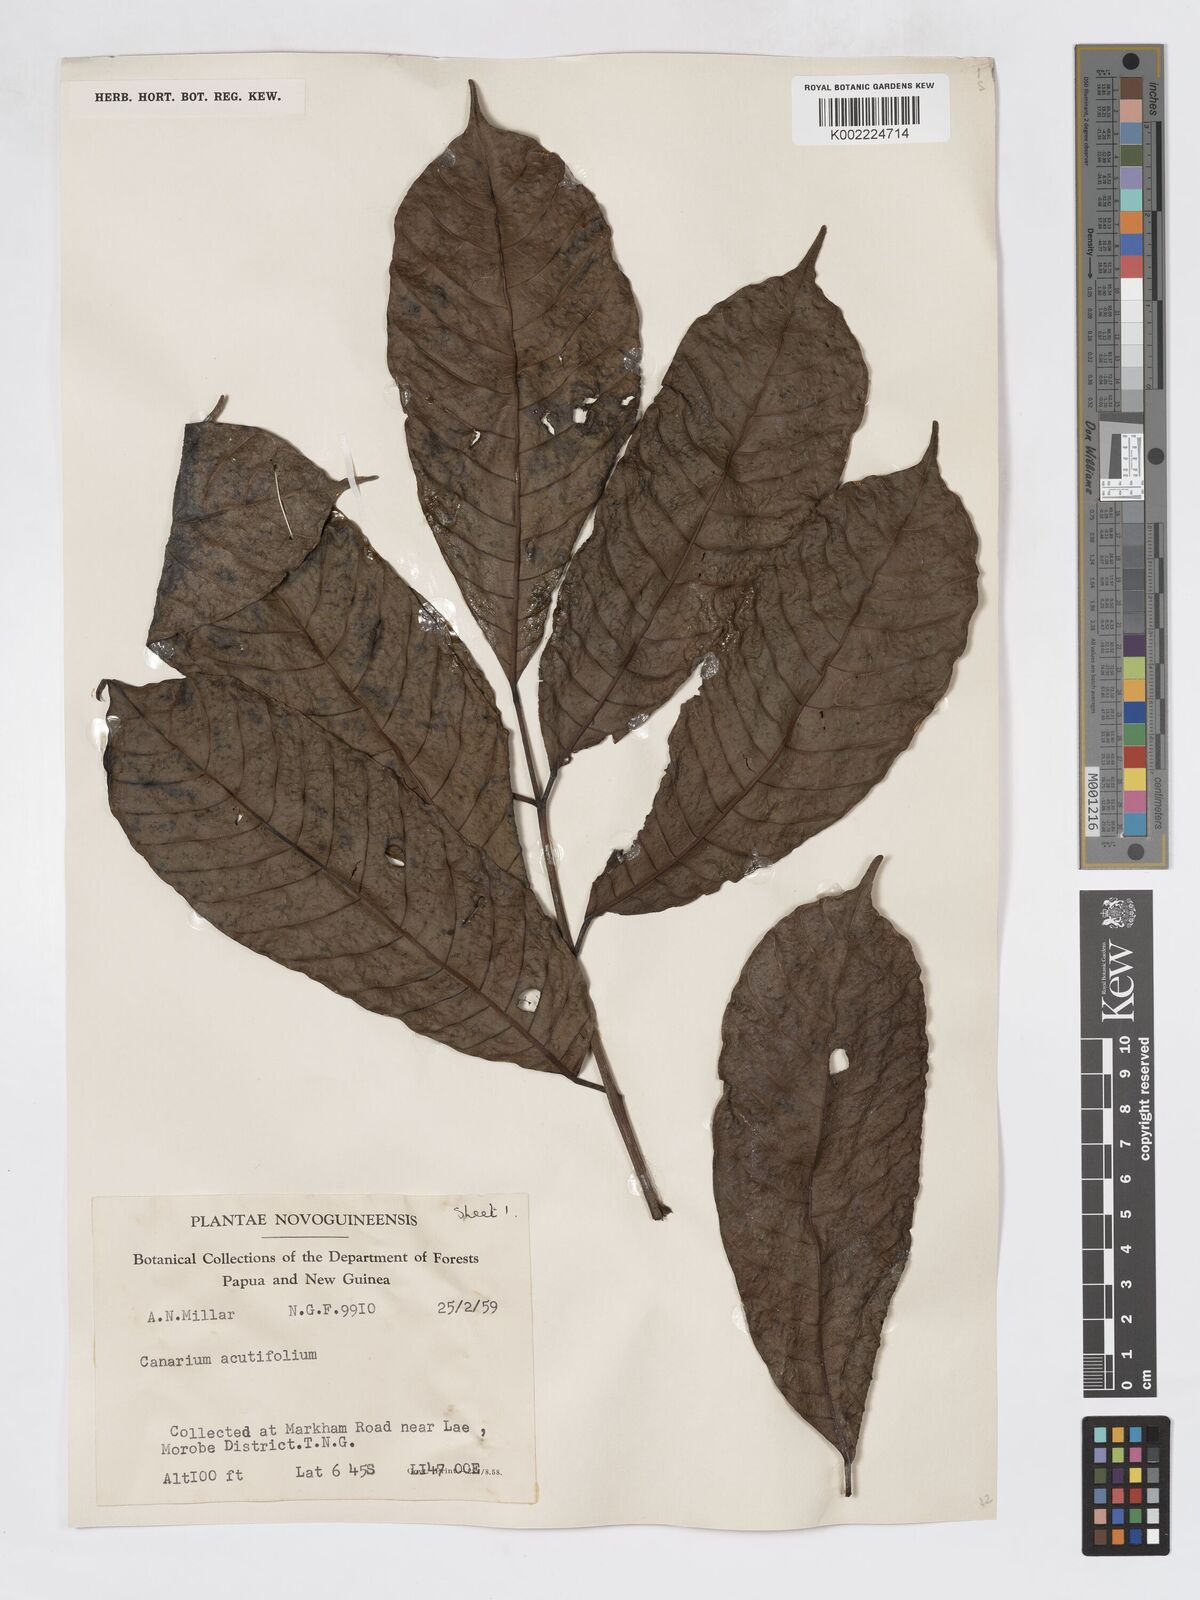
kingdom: Plantae
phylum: Tracheophyta
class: Magnoliopsida
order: Sapindales
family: Burseraceae
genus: Canarium
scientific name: Canarium acutifolium
